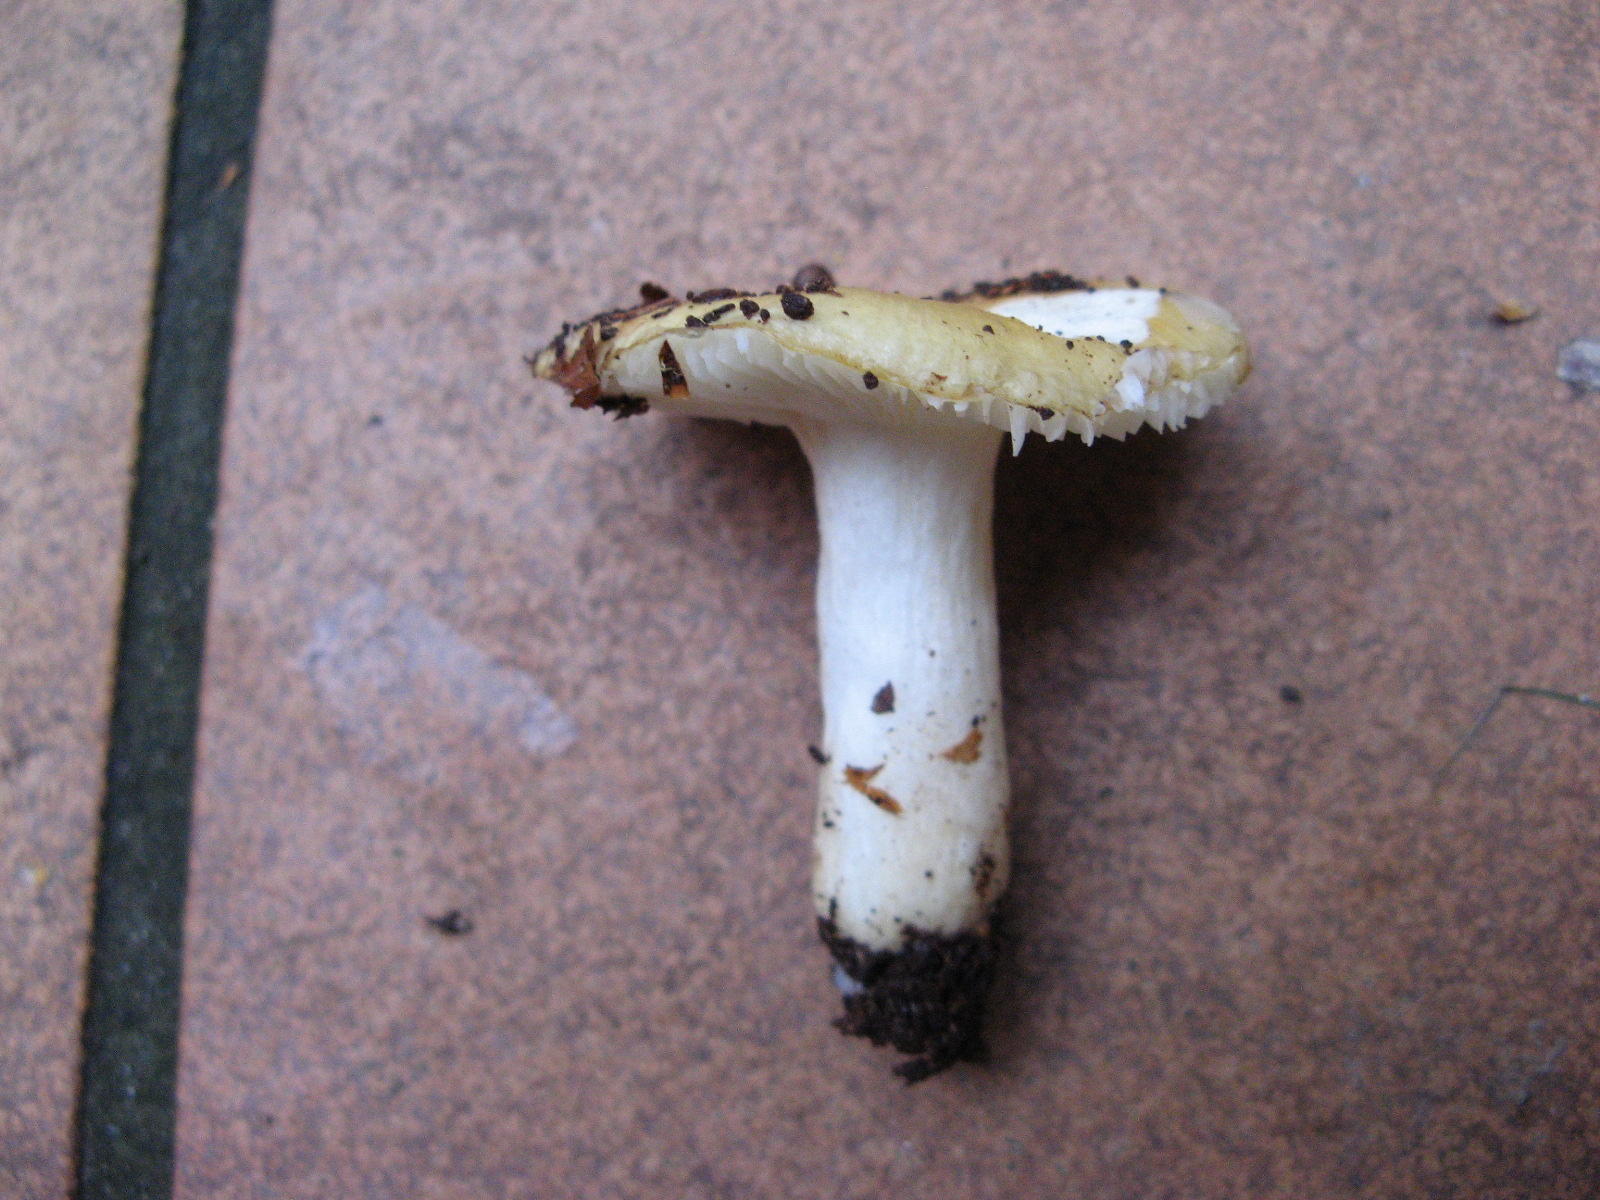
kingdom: Fungi
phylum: Basidiomycota
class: Agaricomycetes
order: Russulales
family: Russulaceae
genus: Russula
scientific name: Russula ochroleuca
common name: okkergul skørhat
